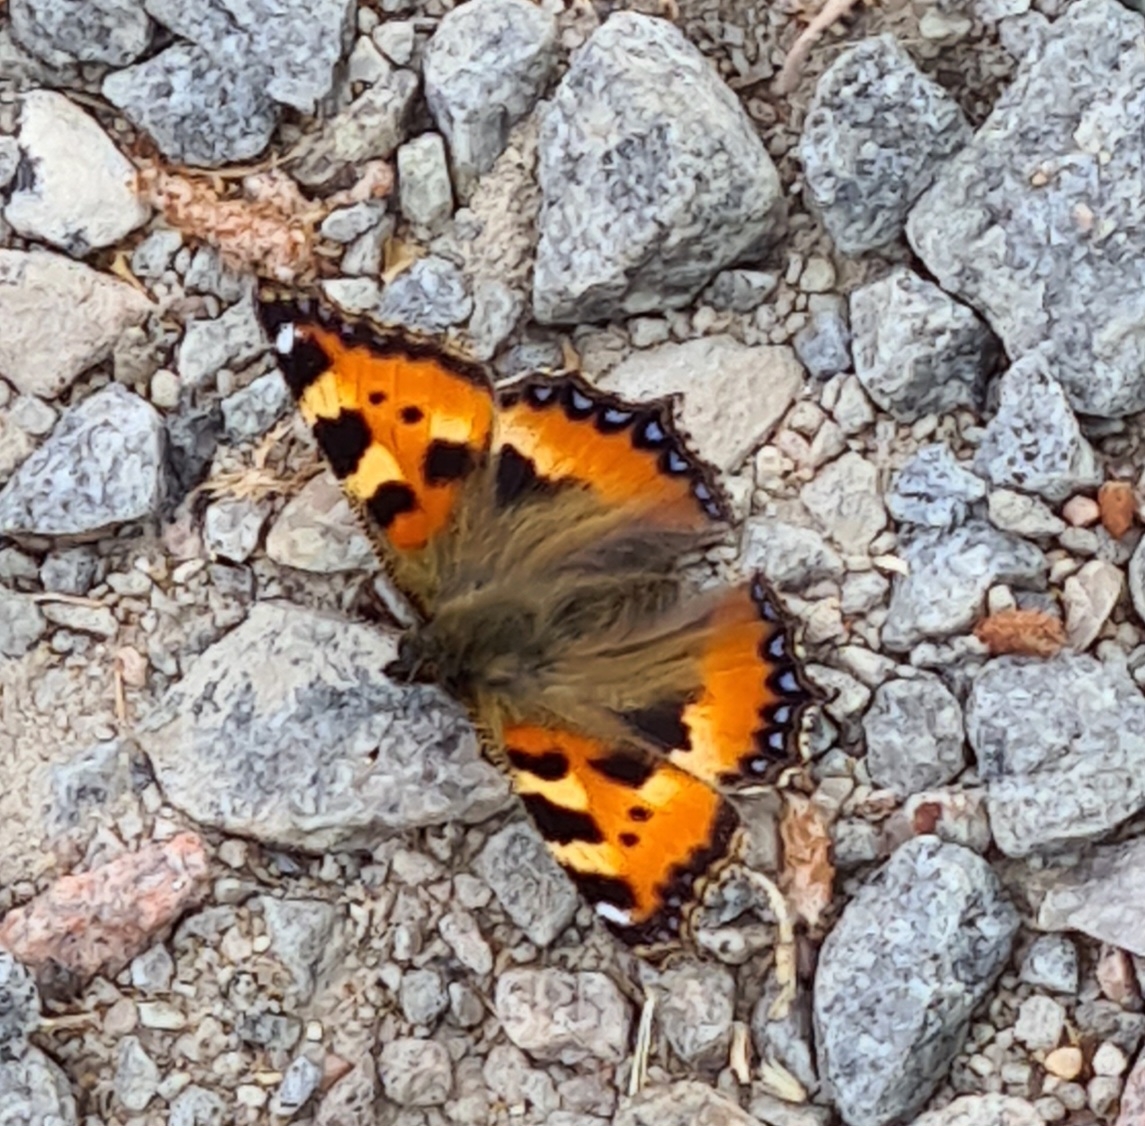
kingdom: Animalia
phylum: Arthropoda
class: Insecta
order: Lepidoptera
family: Nymphalidae
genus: Aglais
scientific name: Aglais urticae
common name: Nældens takvinge
